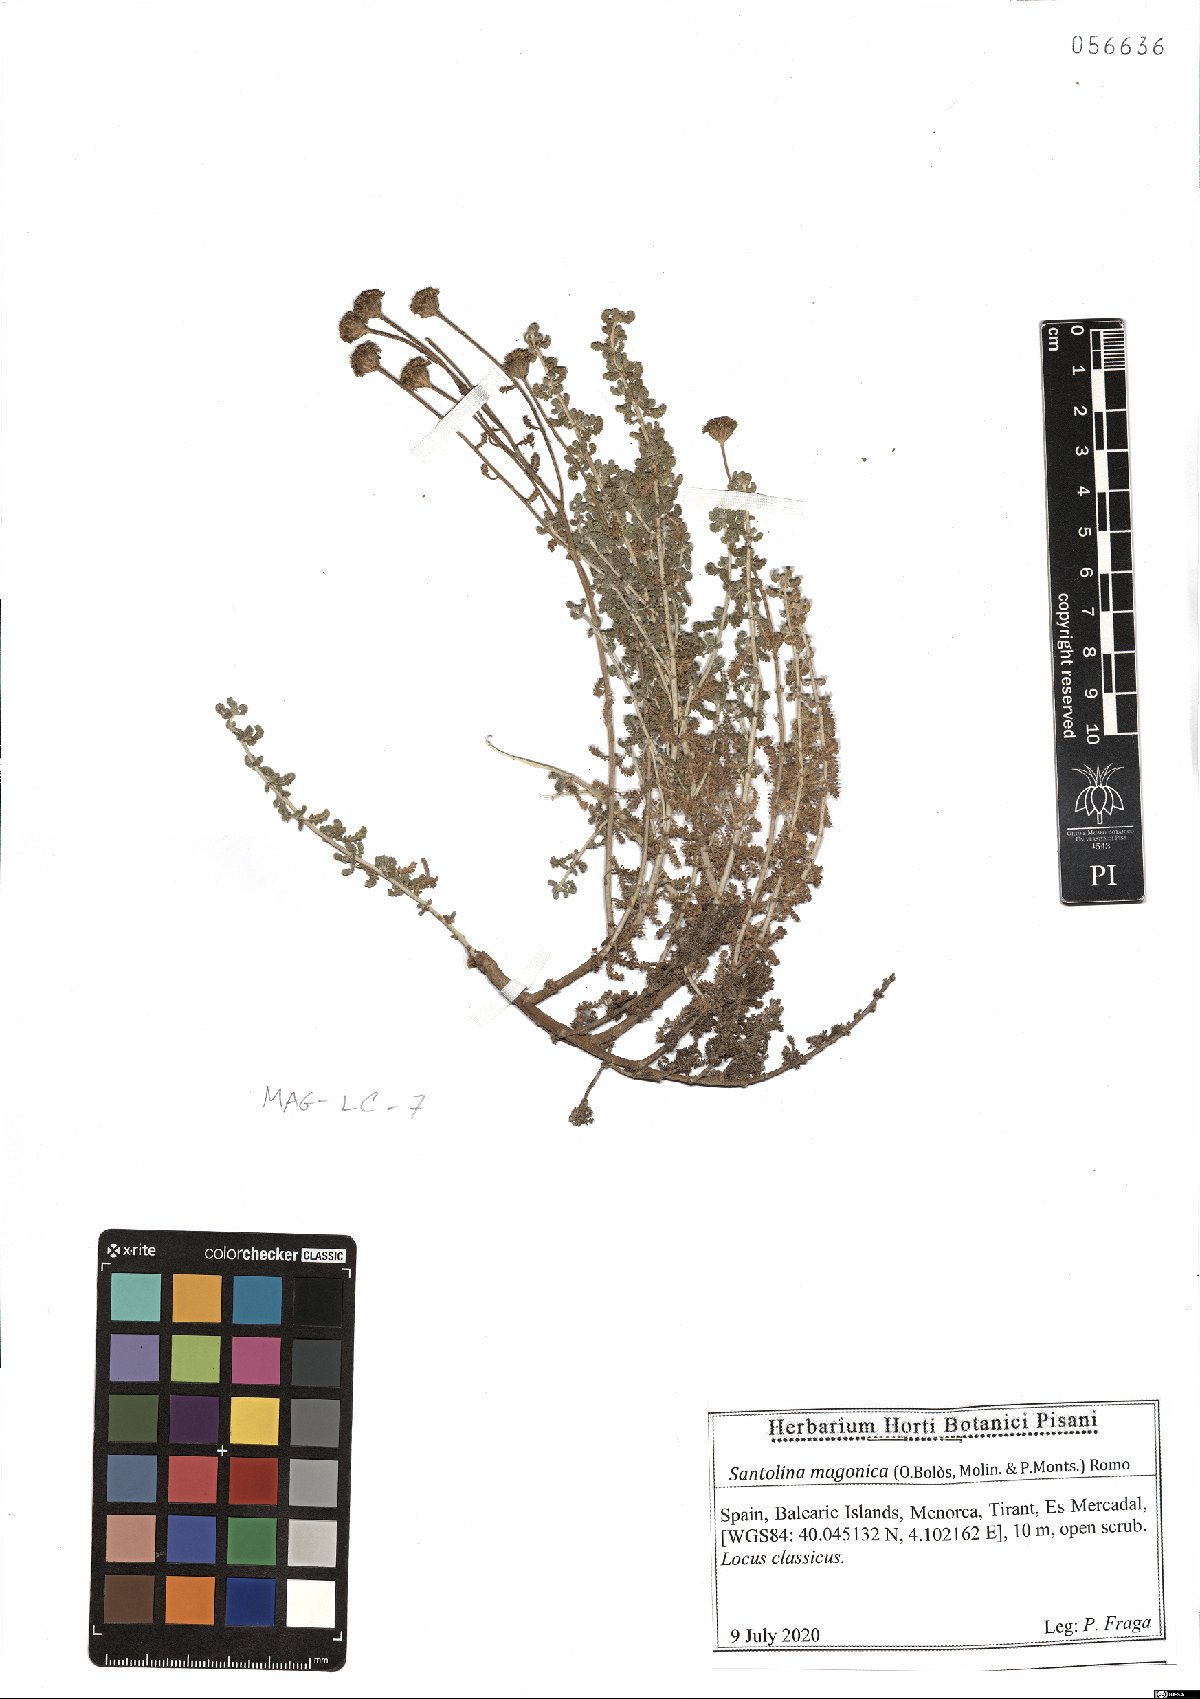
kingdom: Plantae
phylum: Tracheophyta
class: Magnoliopsida
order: Asterales
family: Asteraceae
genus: Santolina
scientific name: Santolina magonica
